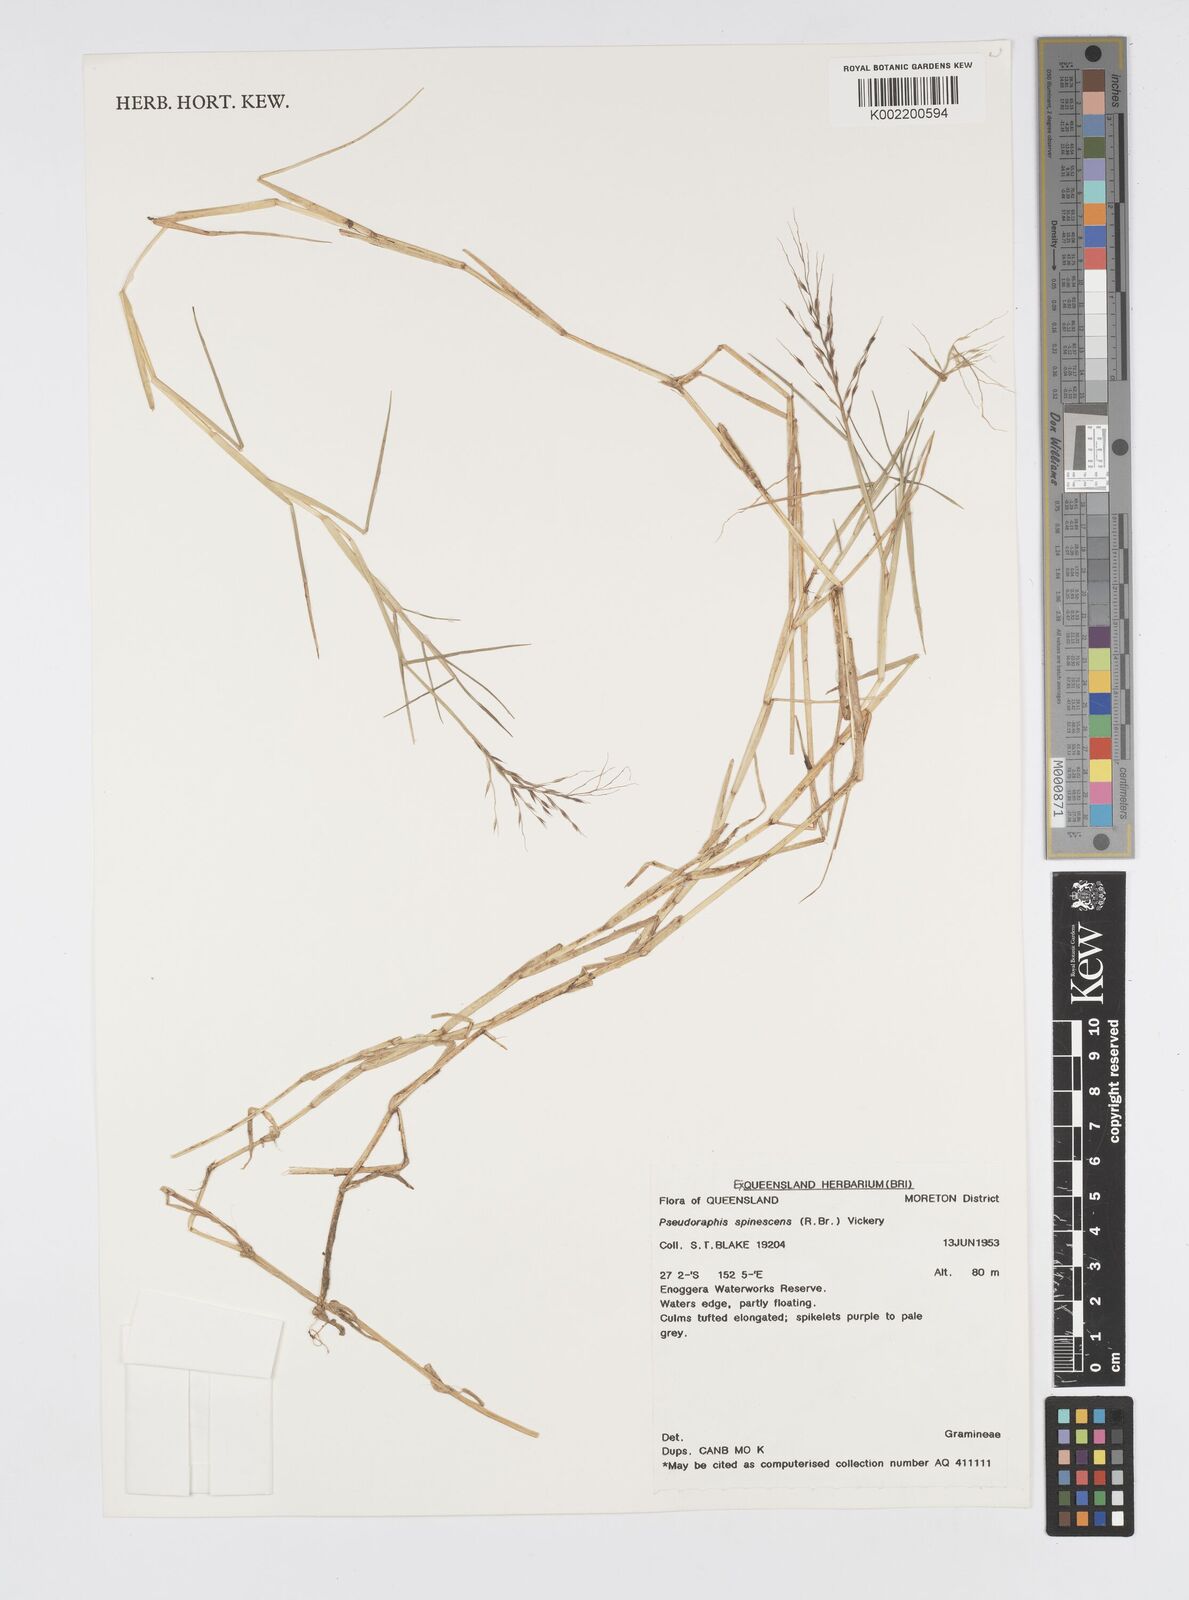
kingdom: Plantae
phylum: Tracheophyta
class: Liliopsida
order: Poales
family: Poaceae
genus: Pseudoraphis
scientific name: Pseudoraphis spinescens
